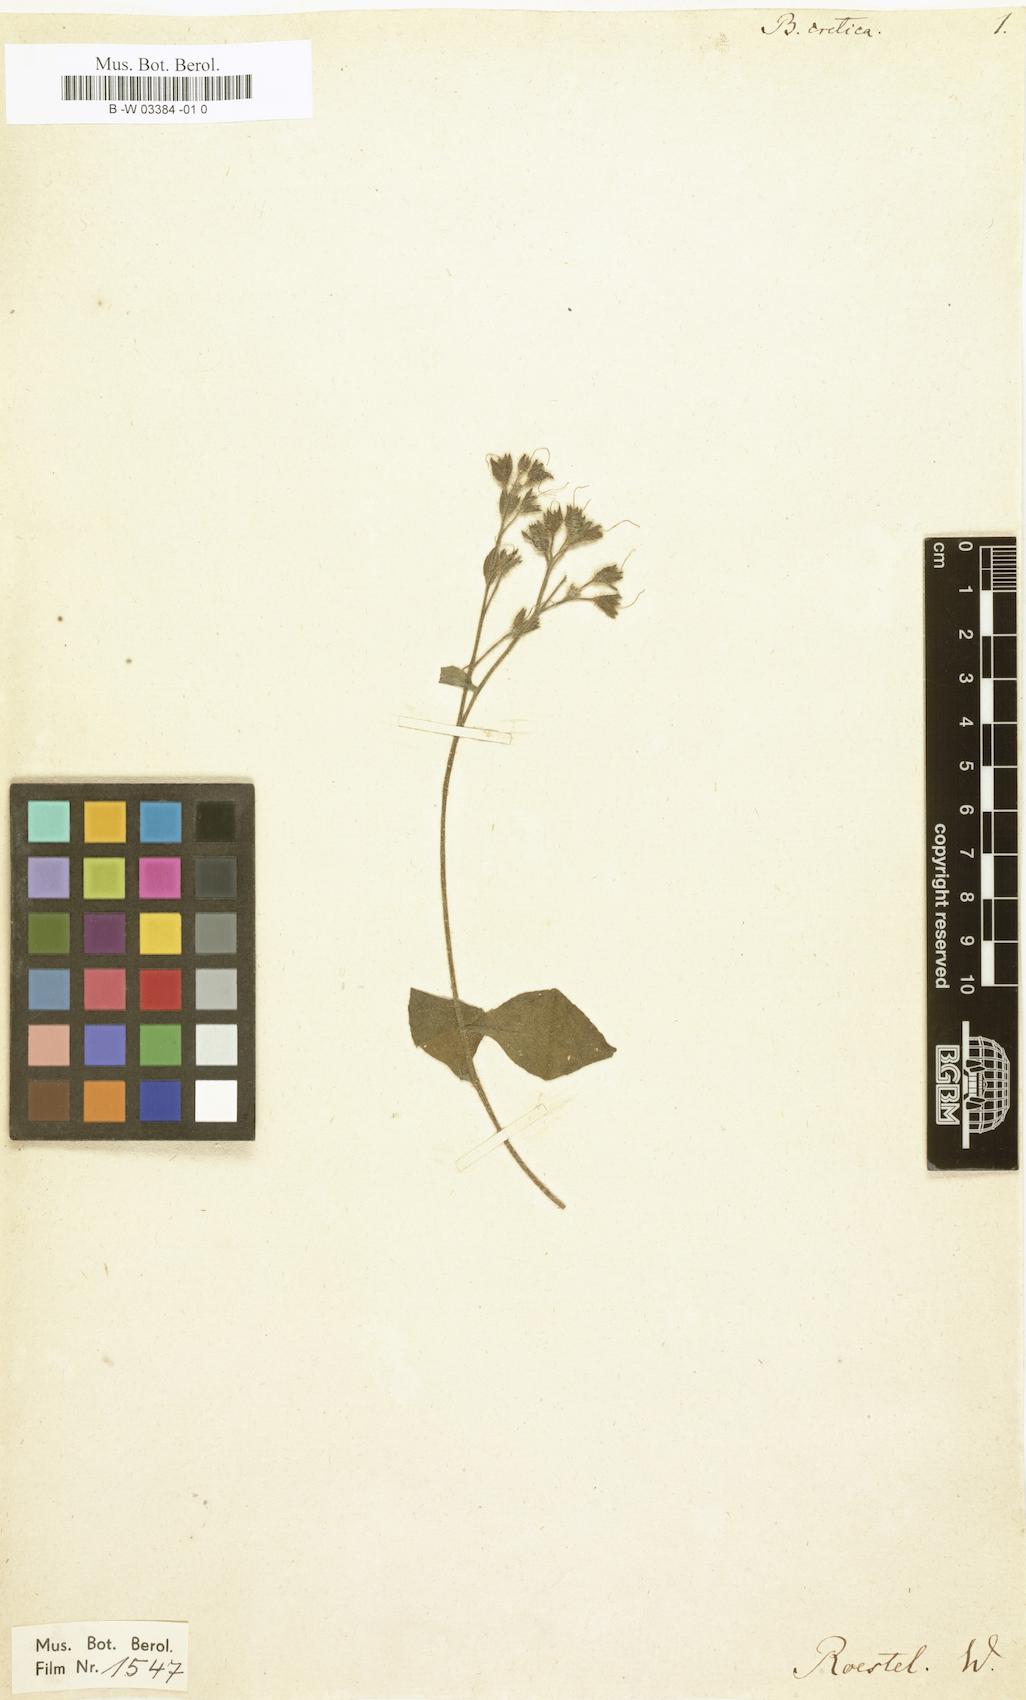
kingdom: Plantae
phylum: Tracheophyta
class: Magnoliopsida
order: Boraginales
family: Boraginaceae
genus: Symphytum
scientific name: Symphytum creticum
